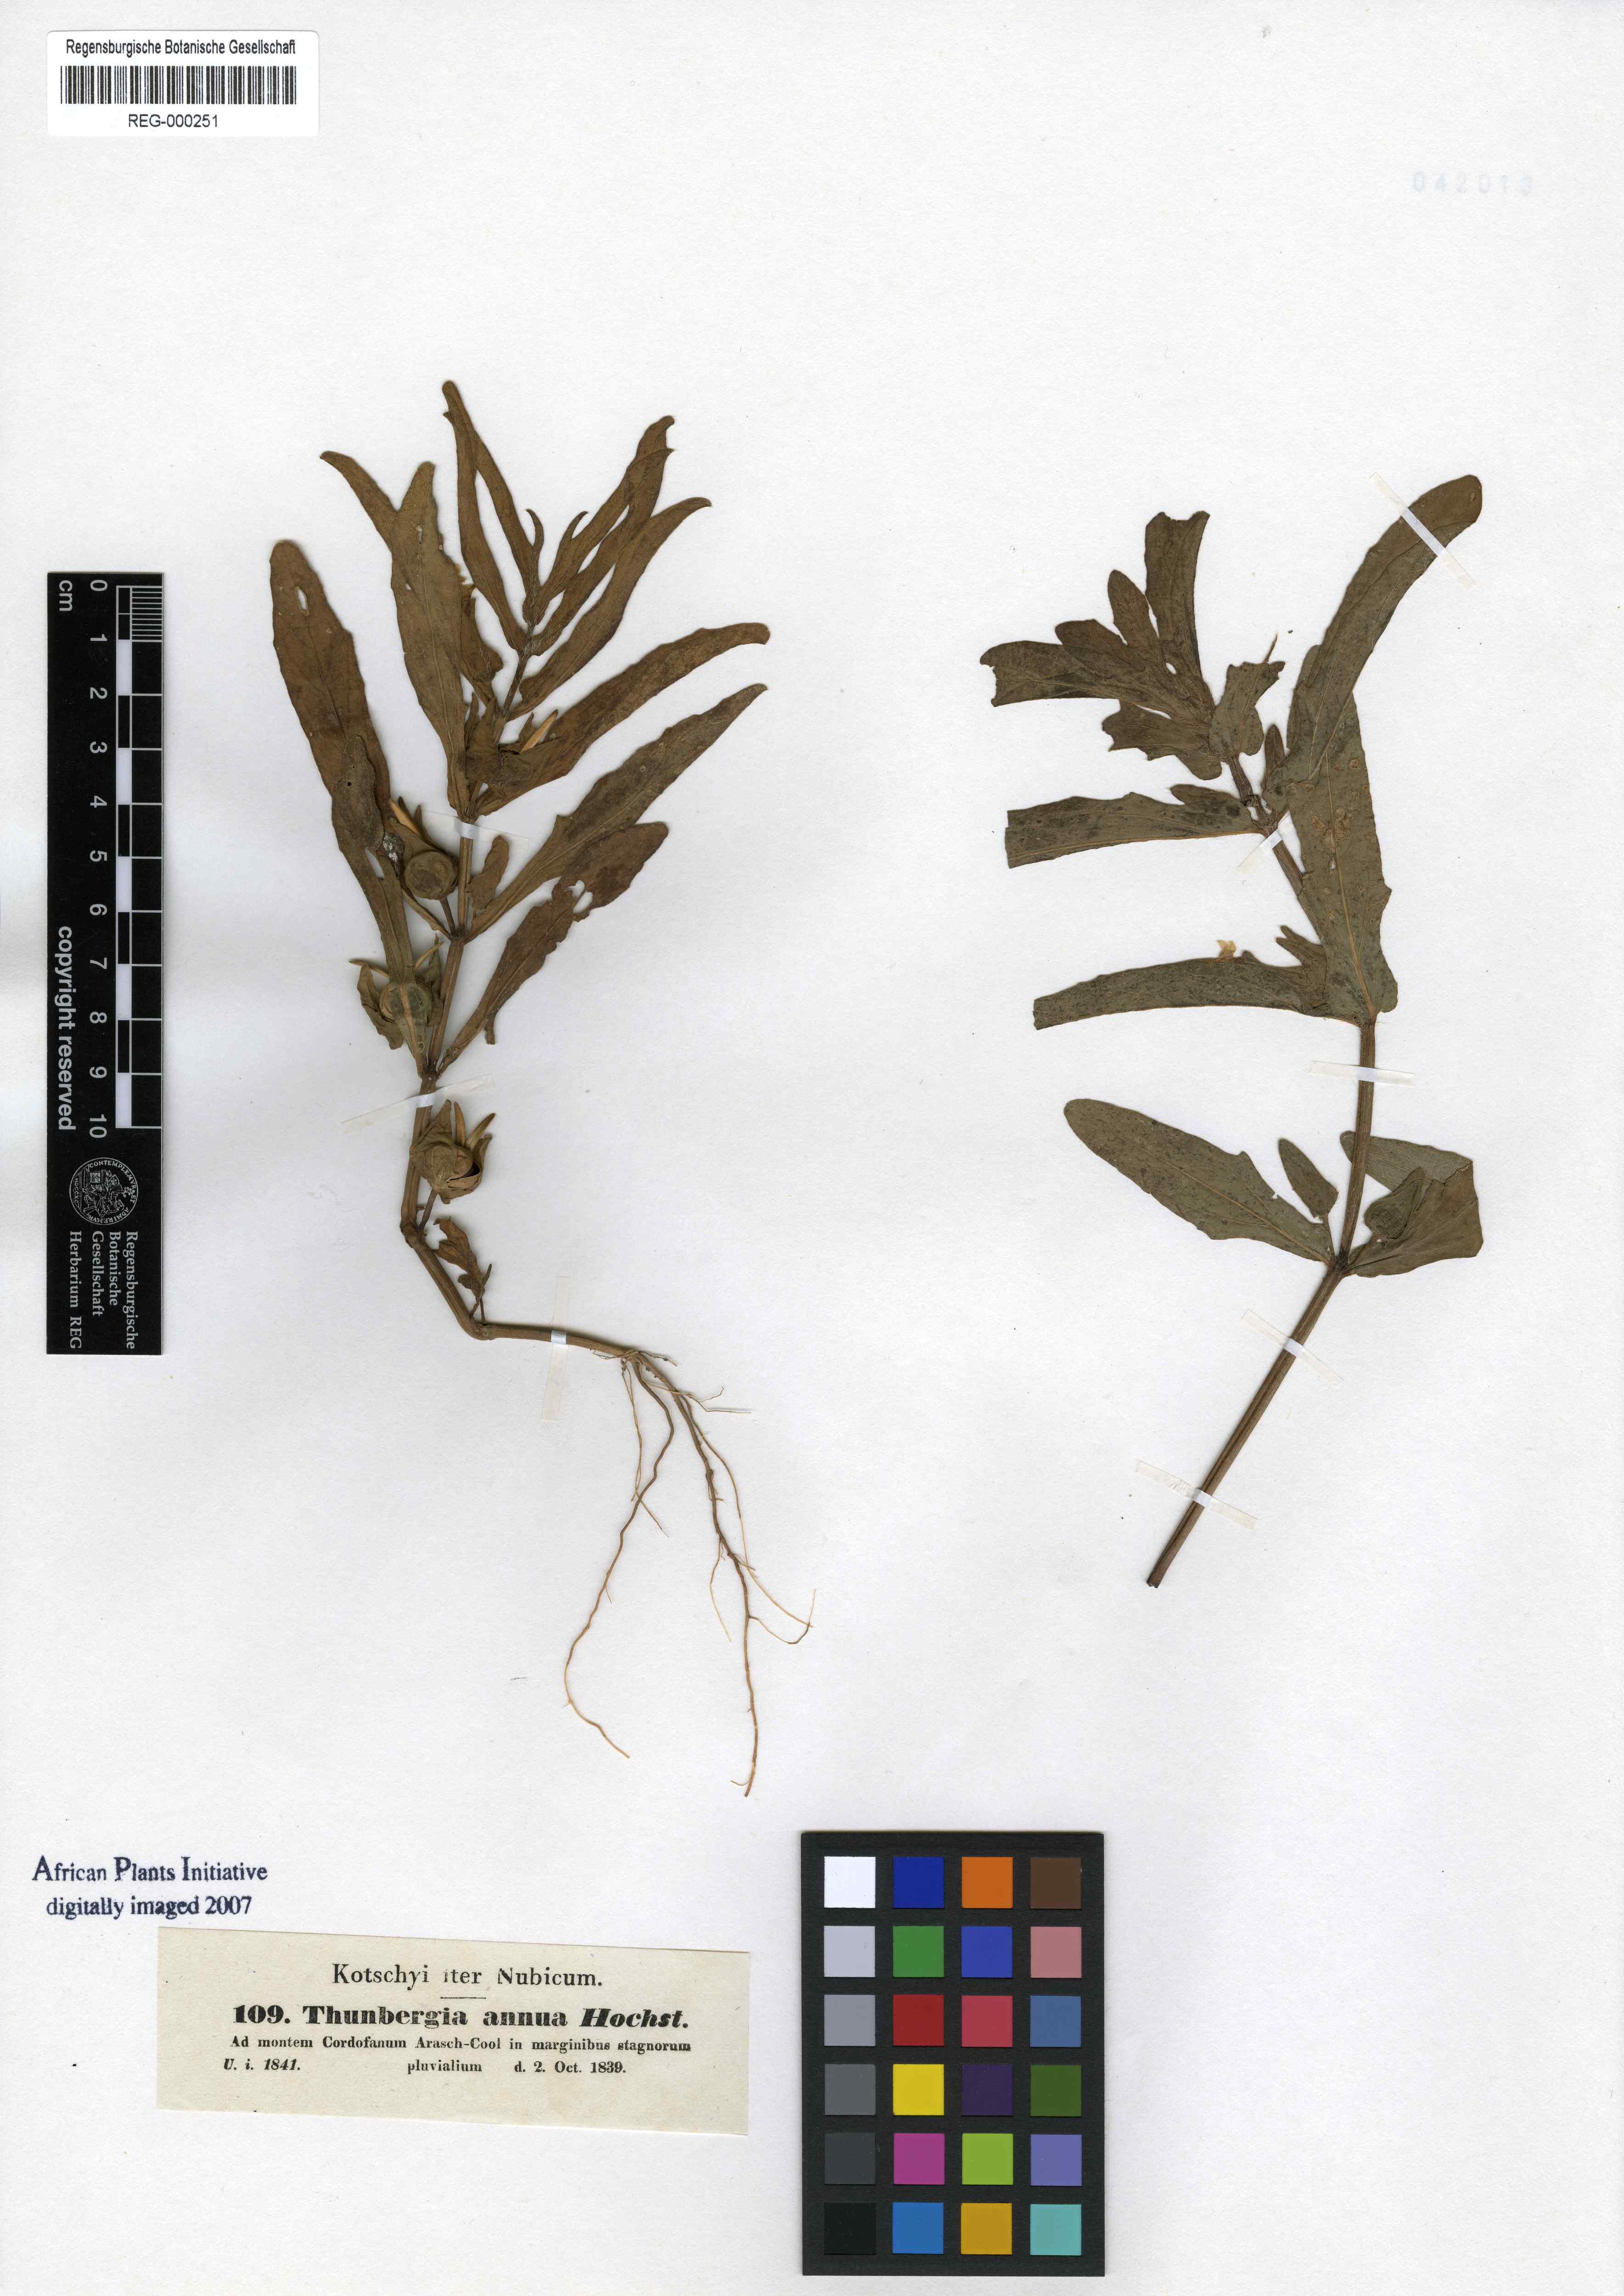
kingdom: Plantae
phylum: Tracheophyta
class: Magnoliopsida
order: Lamiales
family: Acanthaceae
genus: Thunbergia
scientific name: Thunbergia annua
